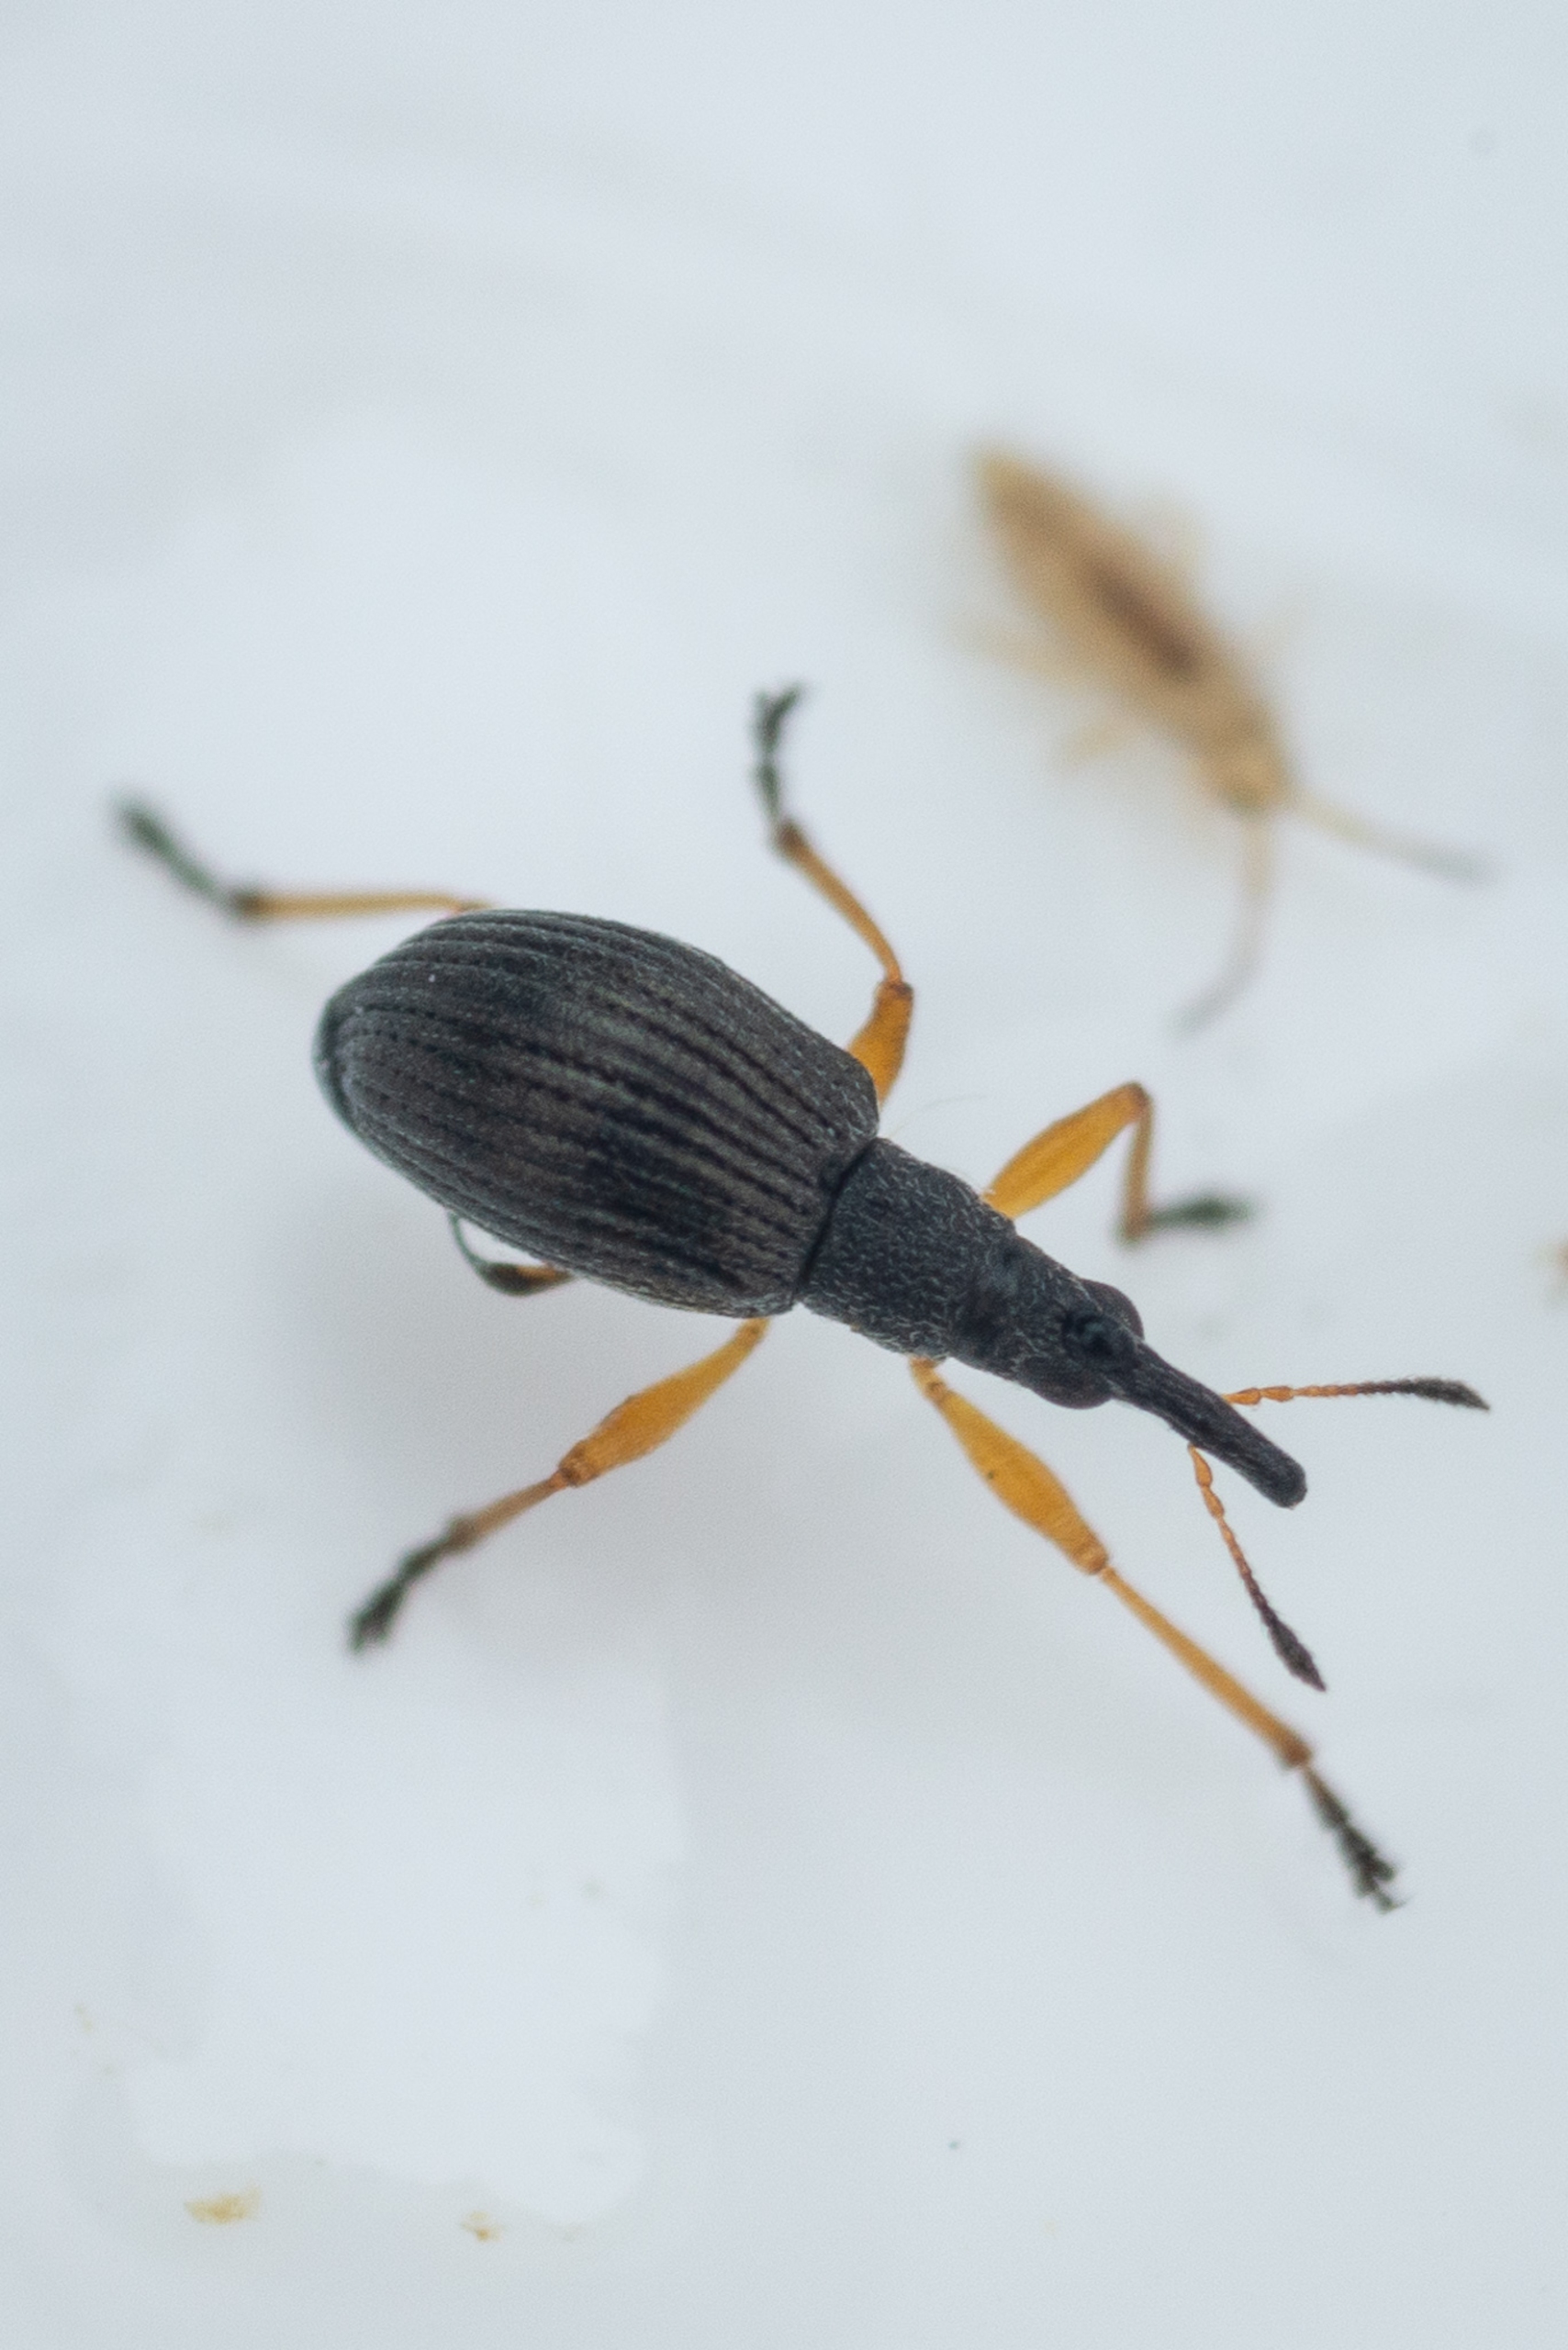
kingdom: Animalia
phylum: Arthropoda
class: Insecta
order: Coleoptera
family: Apionidae
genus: Protapion
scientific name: Protapion fulvipes
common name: Hvidkløversnudebille
